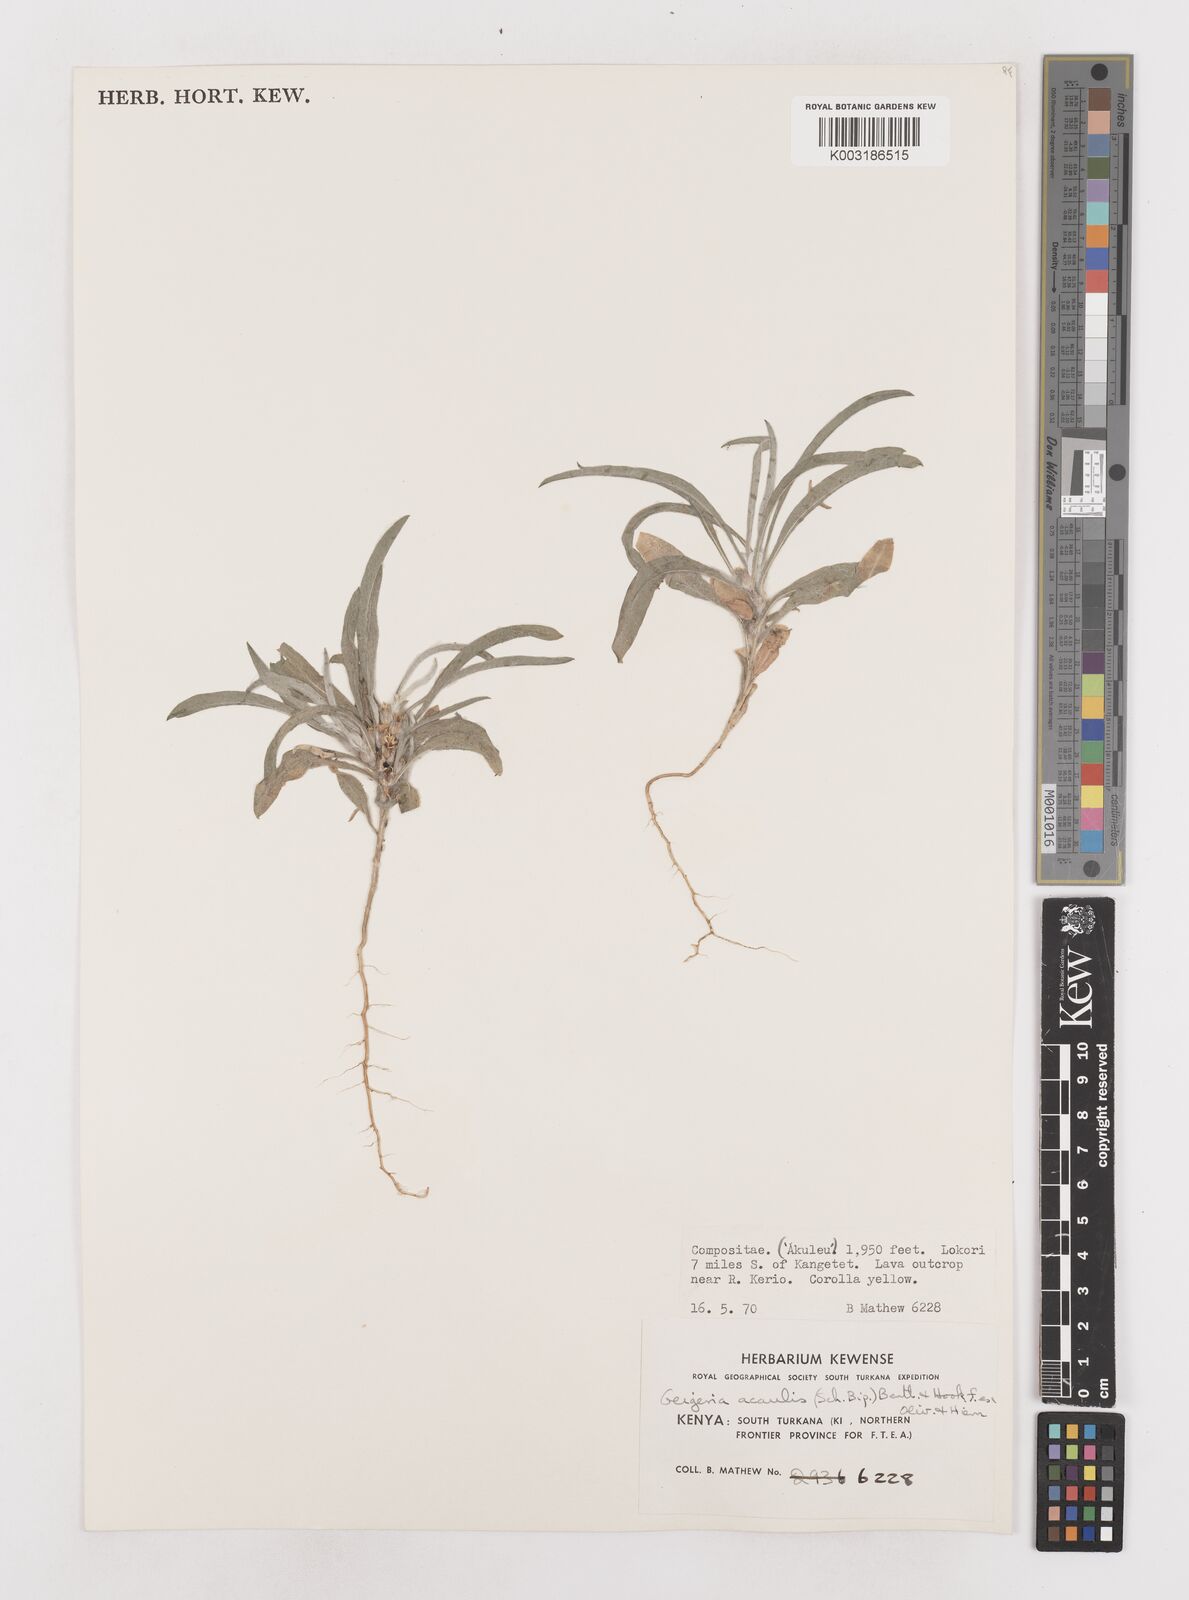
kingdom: Plantae
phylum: Tracheophyta
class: Magnoliopsida
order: Asterales
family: Asteraceae
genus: Geigeria
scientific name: Geigeria acaulis
